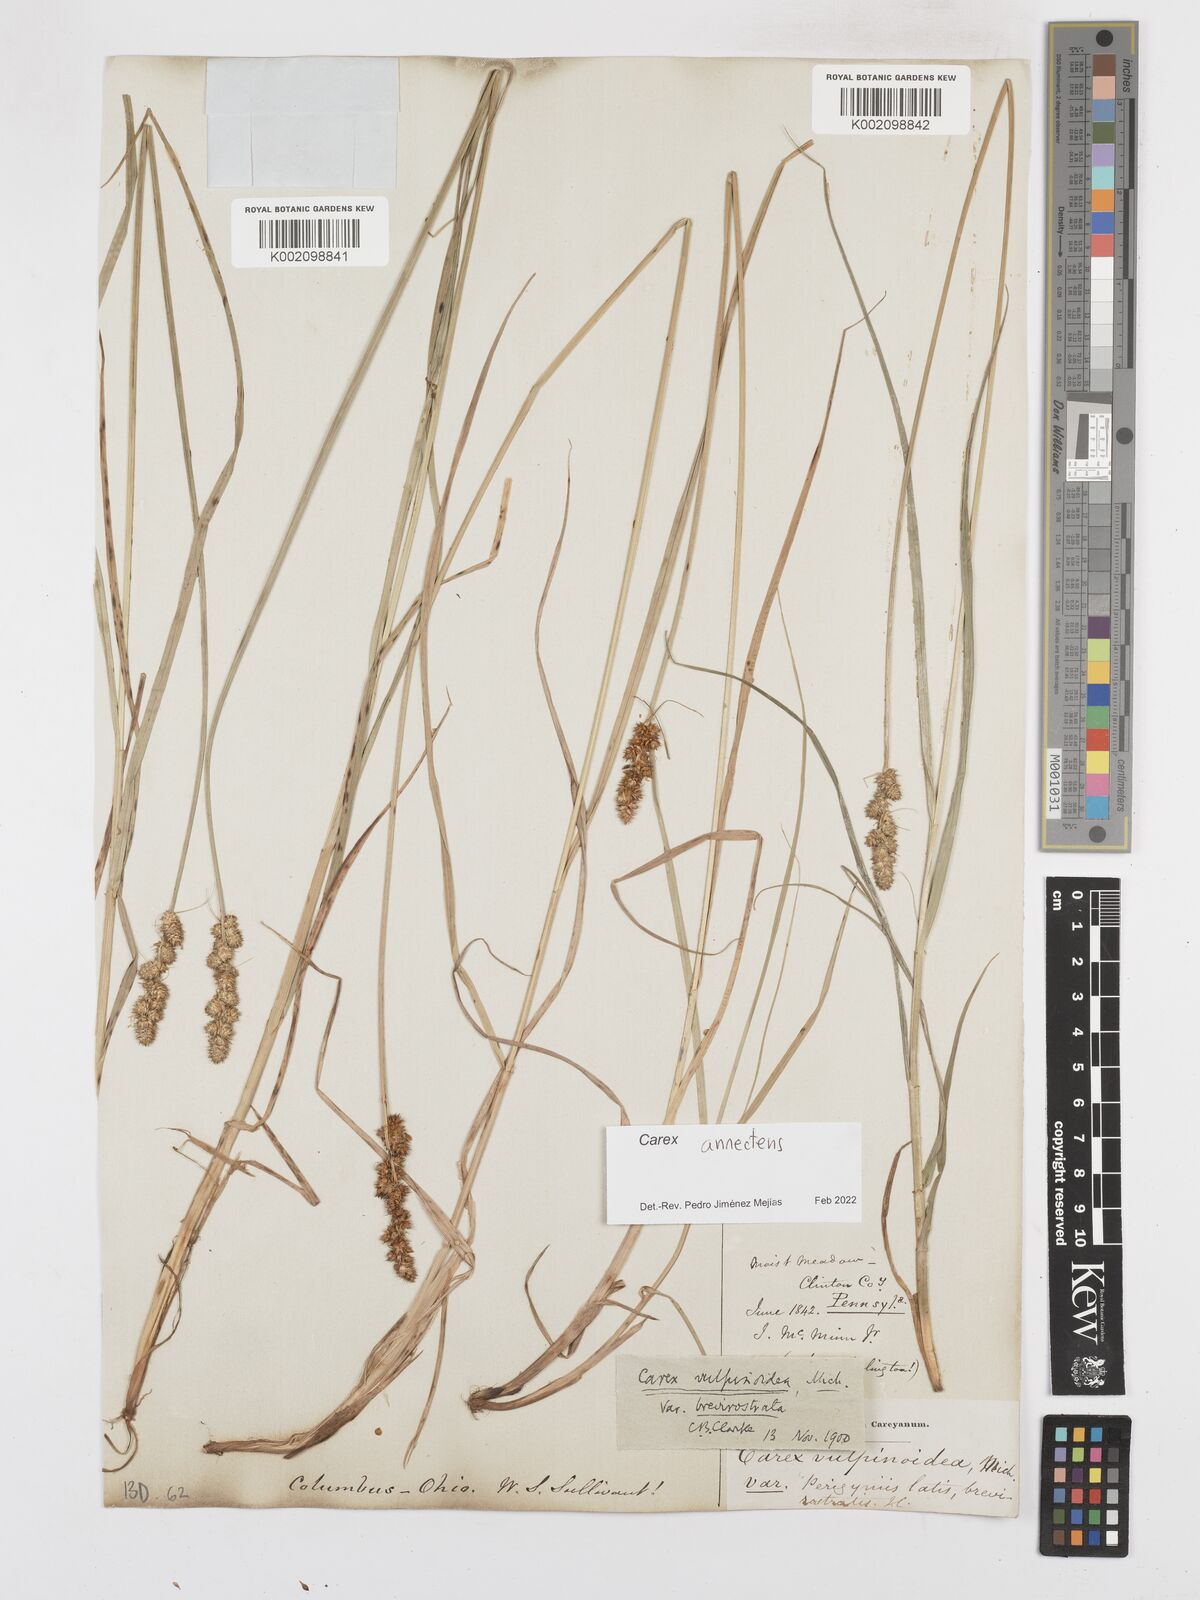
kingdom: Plantae
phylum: Tracheophyta
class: Liliopsida
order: Poales
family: Cyperaceae
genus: Carex
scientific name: Carex annectens
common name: Large fox sedge
